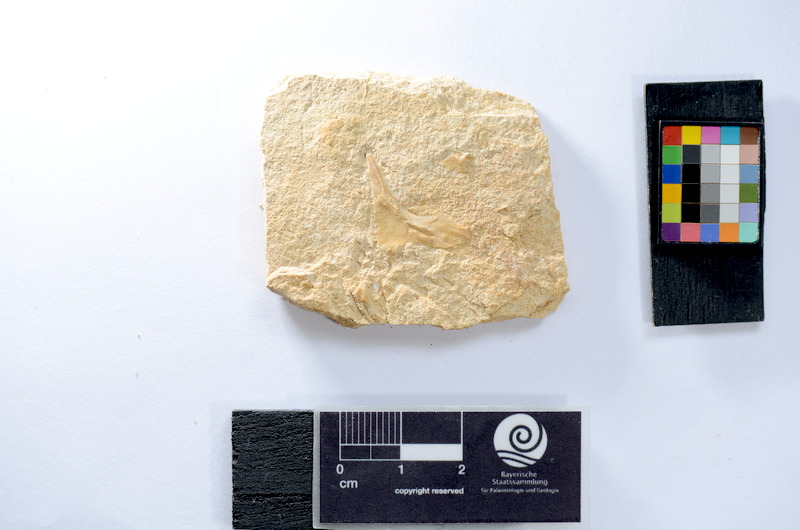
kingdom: Animalia
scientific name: Animalia
